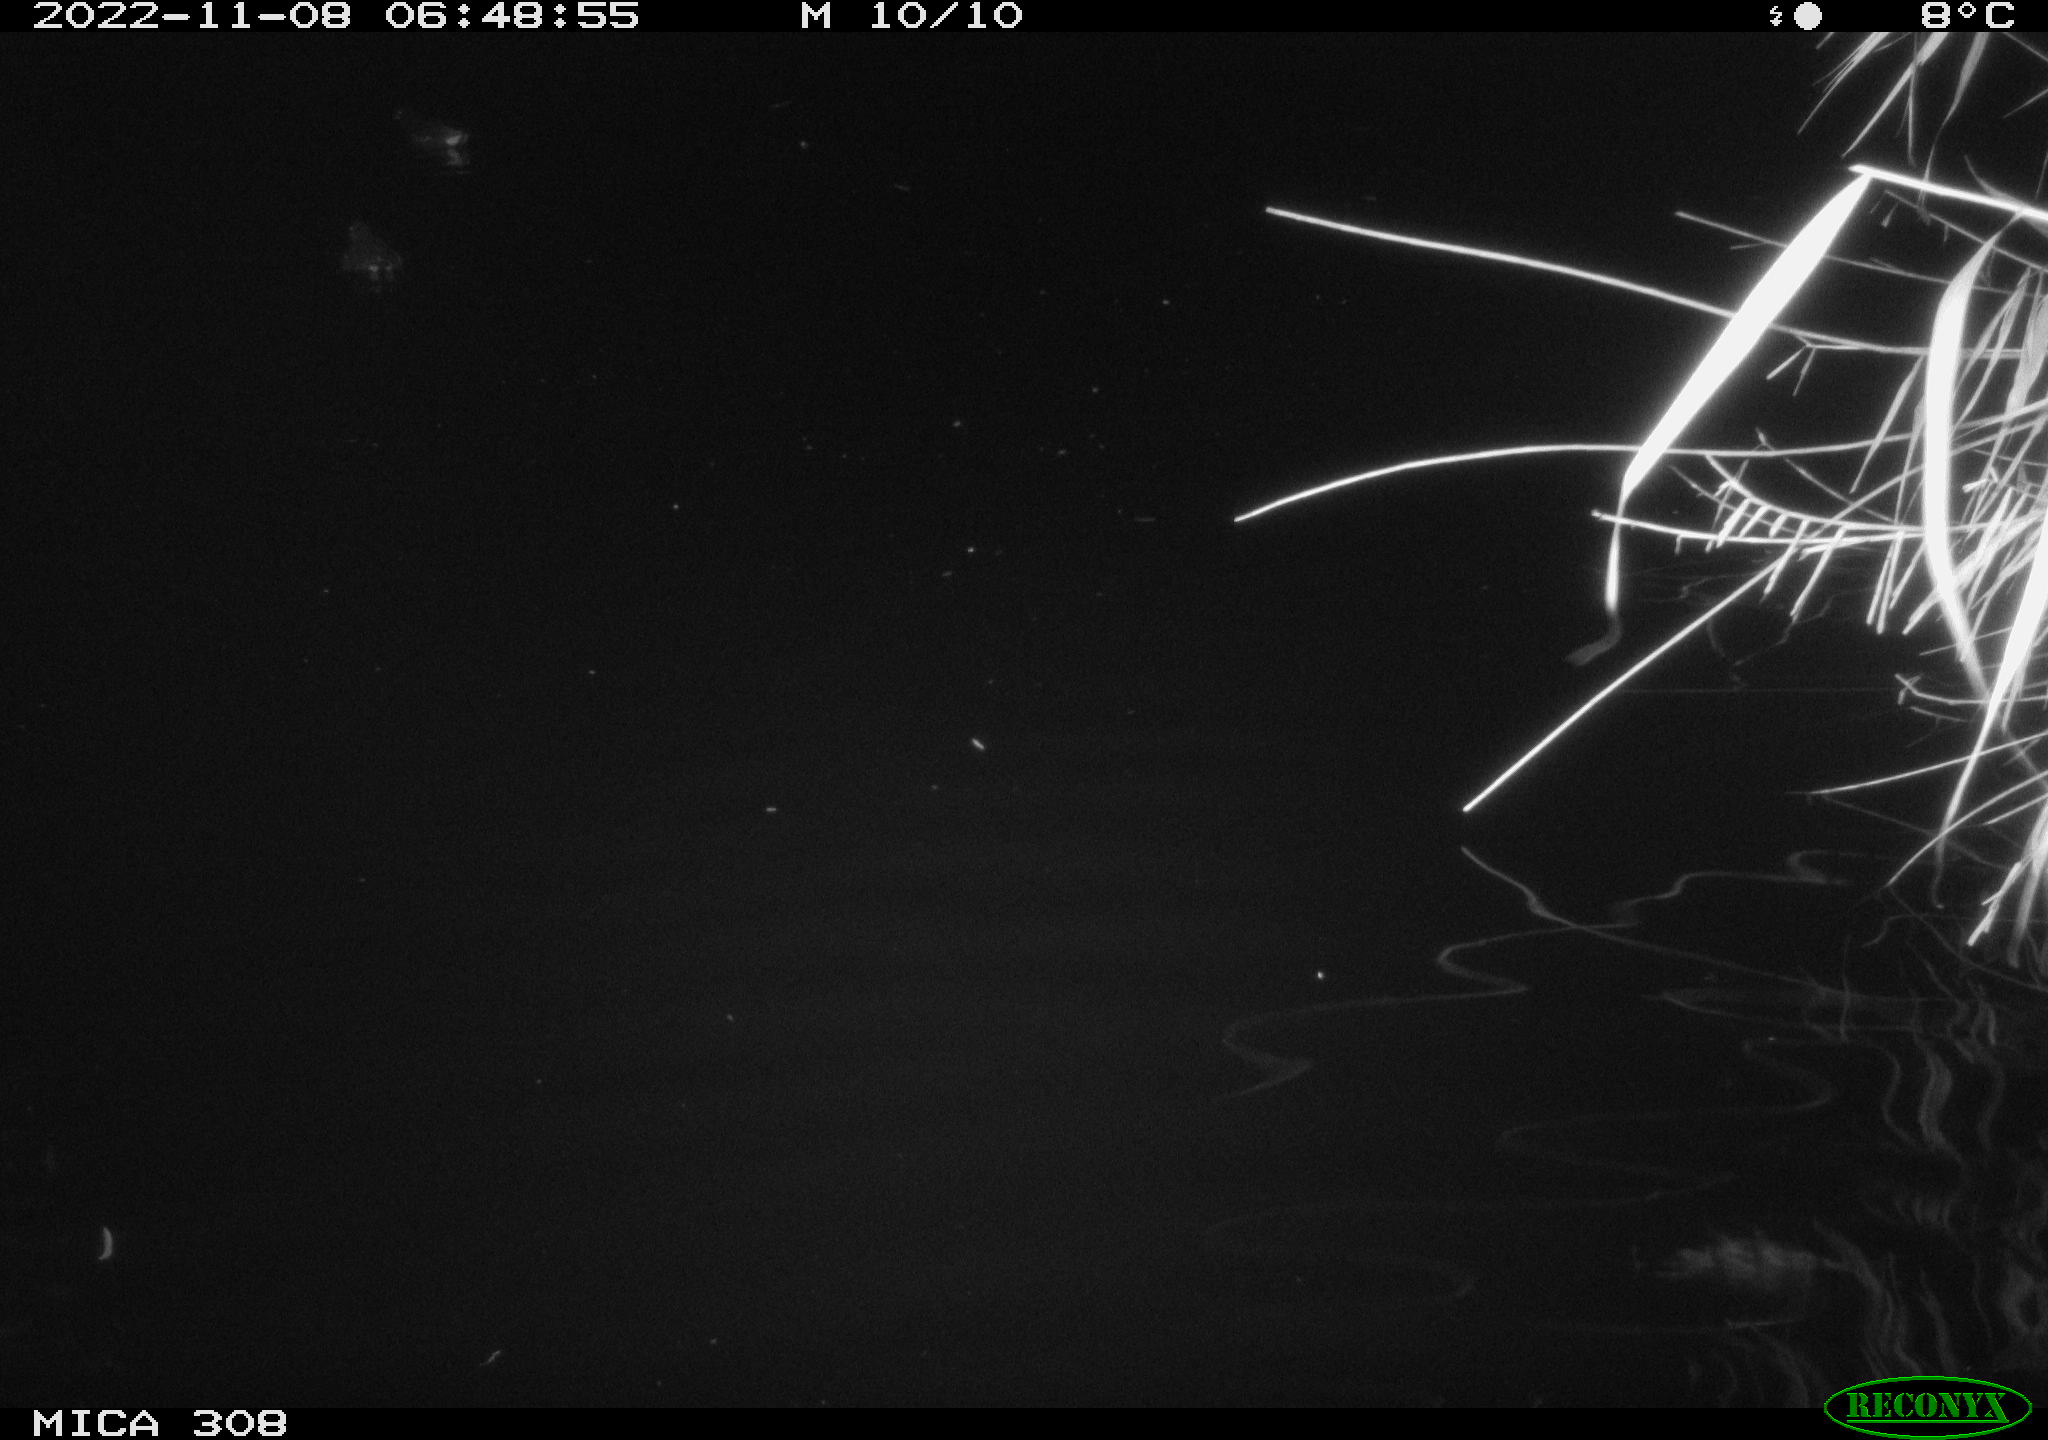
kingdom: Animalia
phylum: Chordata
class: Aves
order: Gruiformes
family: Rallidae
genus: Gallinula
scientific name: Gallinula chloropus
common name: Common moorhen
